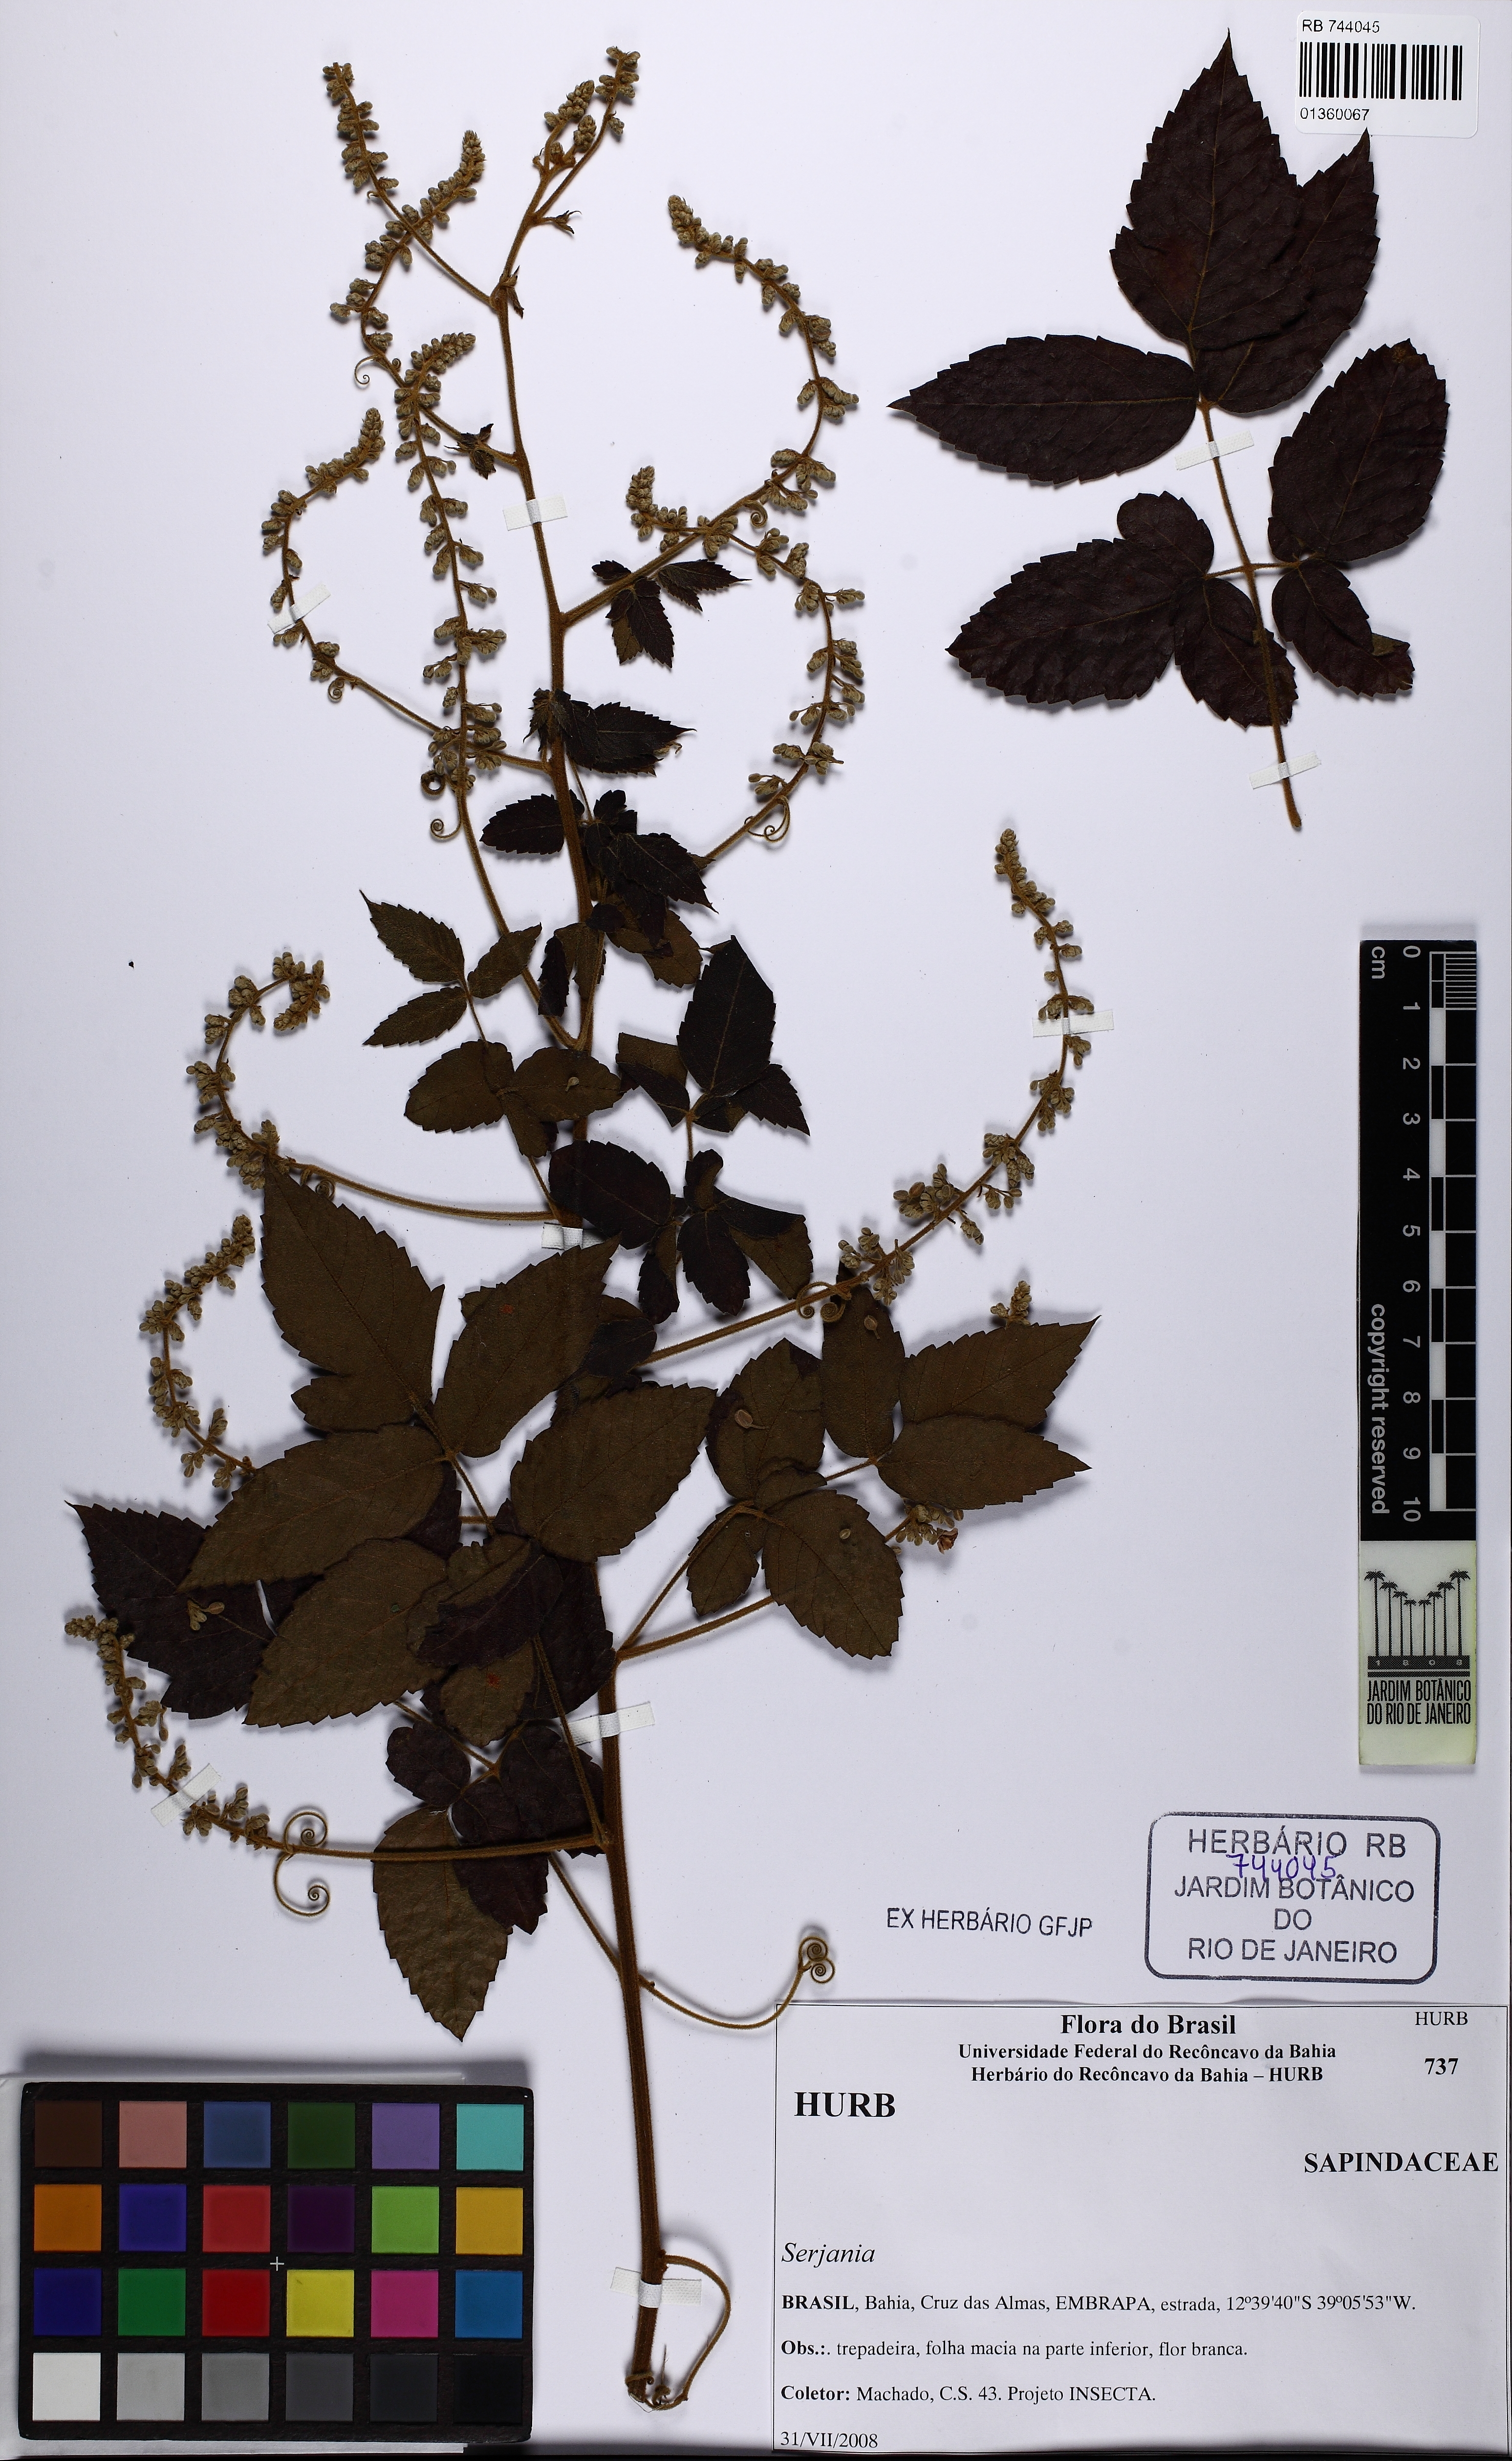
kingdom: Plantae
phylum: Tracheophyta
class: Magnoliopsida
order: Sapindales
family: Sapindaceae
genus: Serjania
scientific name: Serjania
